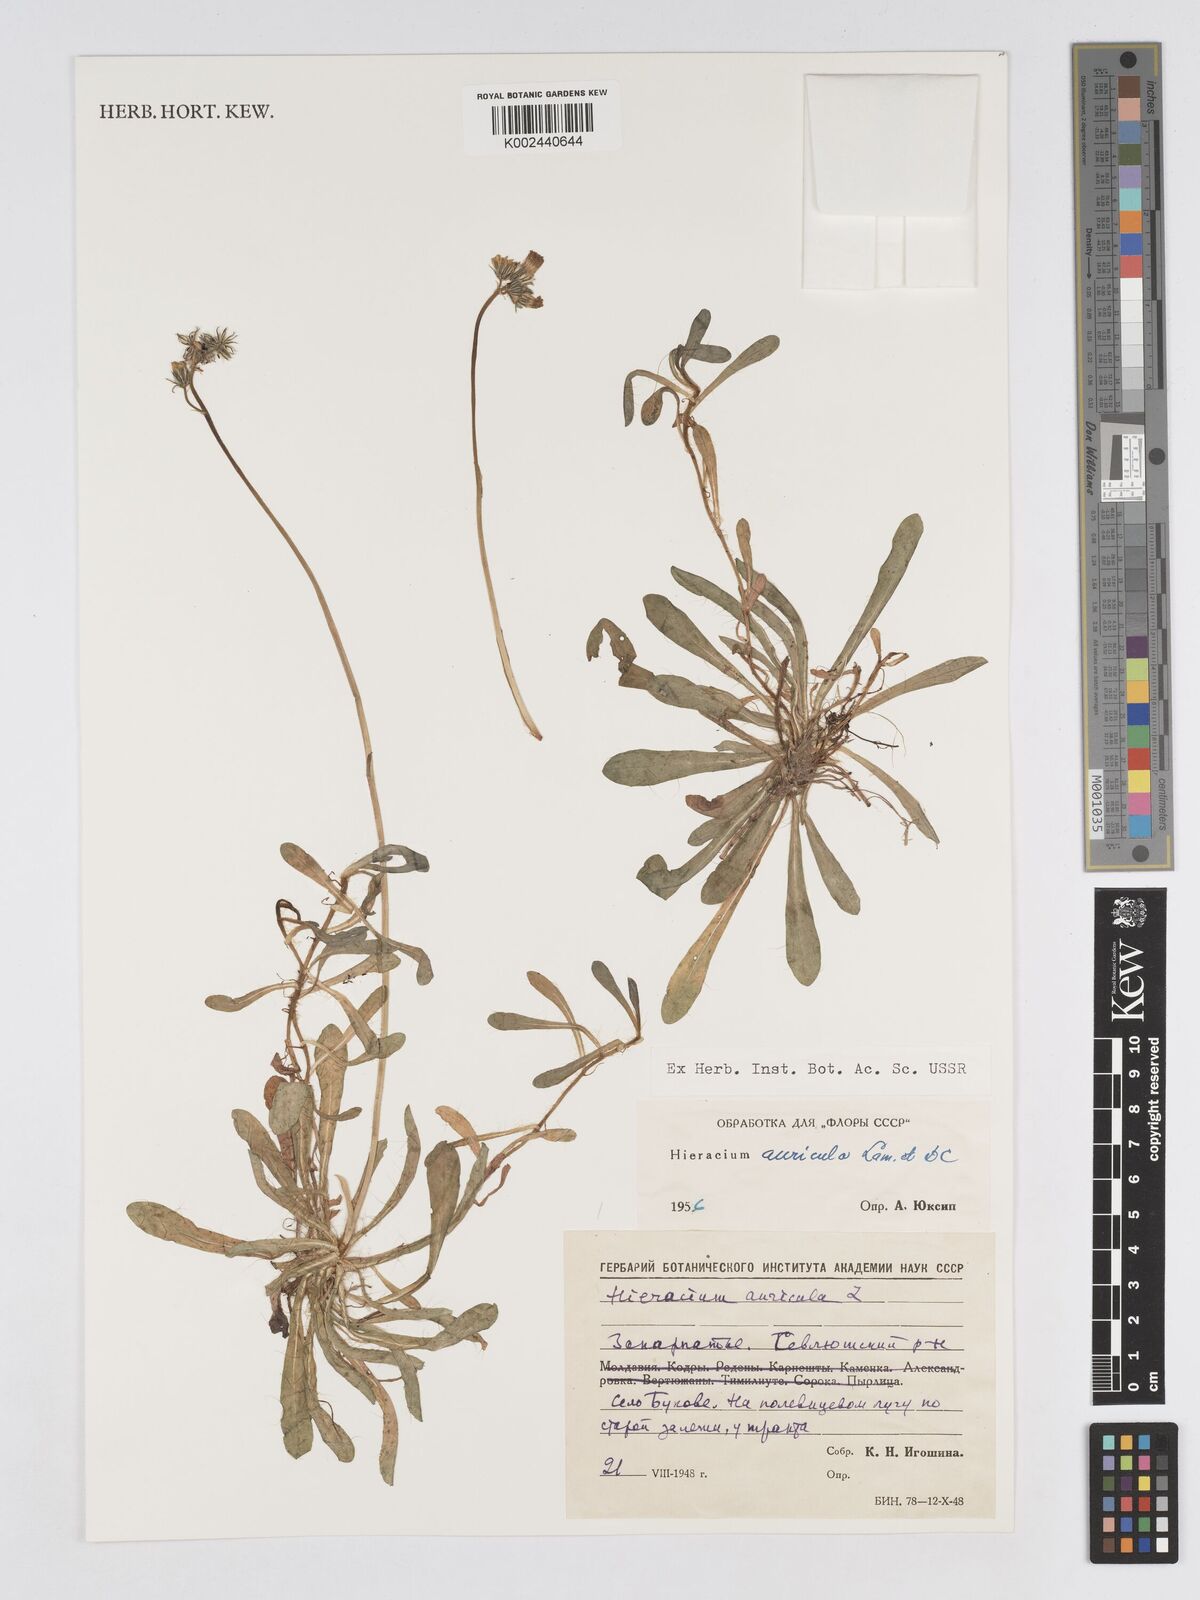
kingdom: Plantae
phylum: Tracheophyta
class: Magnoliopsida
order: Asterales
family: Asteraceae
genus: Pilosella
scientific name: Pilosella floribunda
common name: Glaucous hawkweed
